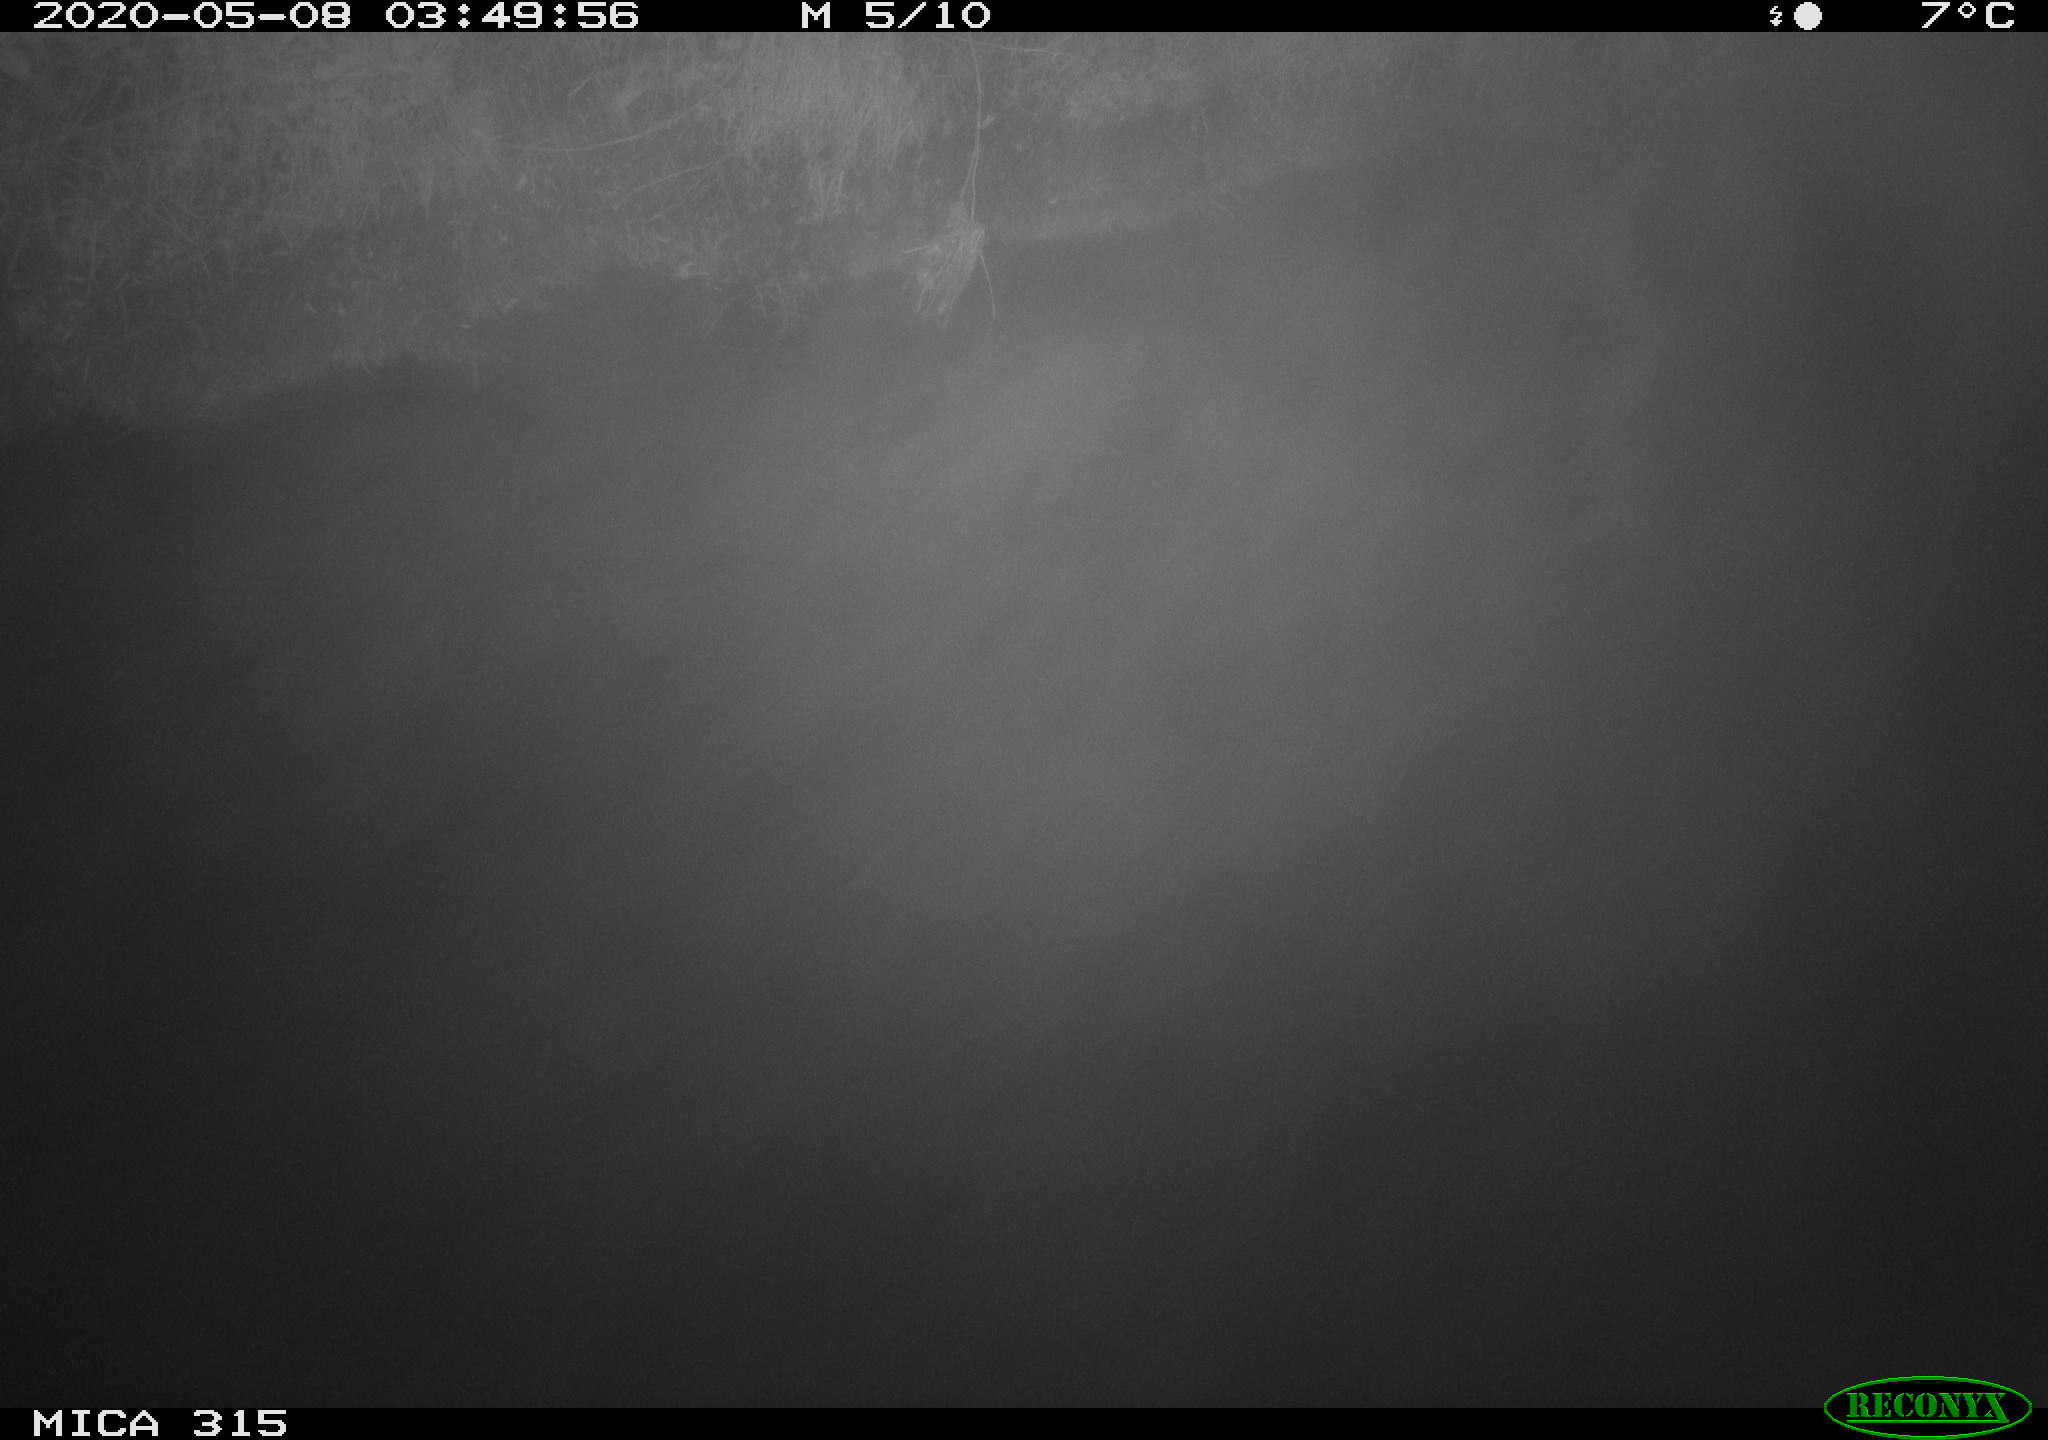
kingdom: Animalia
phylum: Chordata
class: Aves
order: Anseriformes
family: Anatidae
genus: Anas
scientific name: Anas platyrhynchos
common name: Mallard
